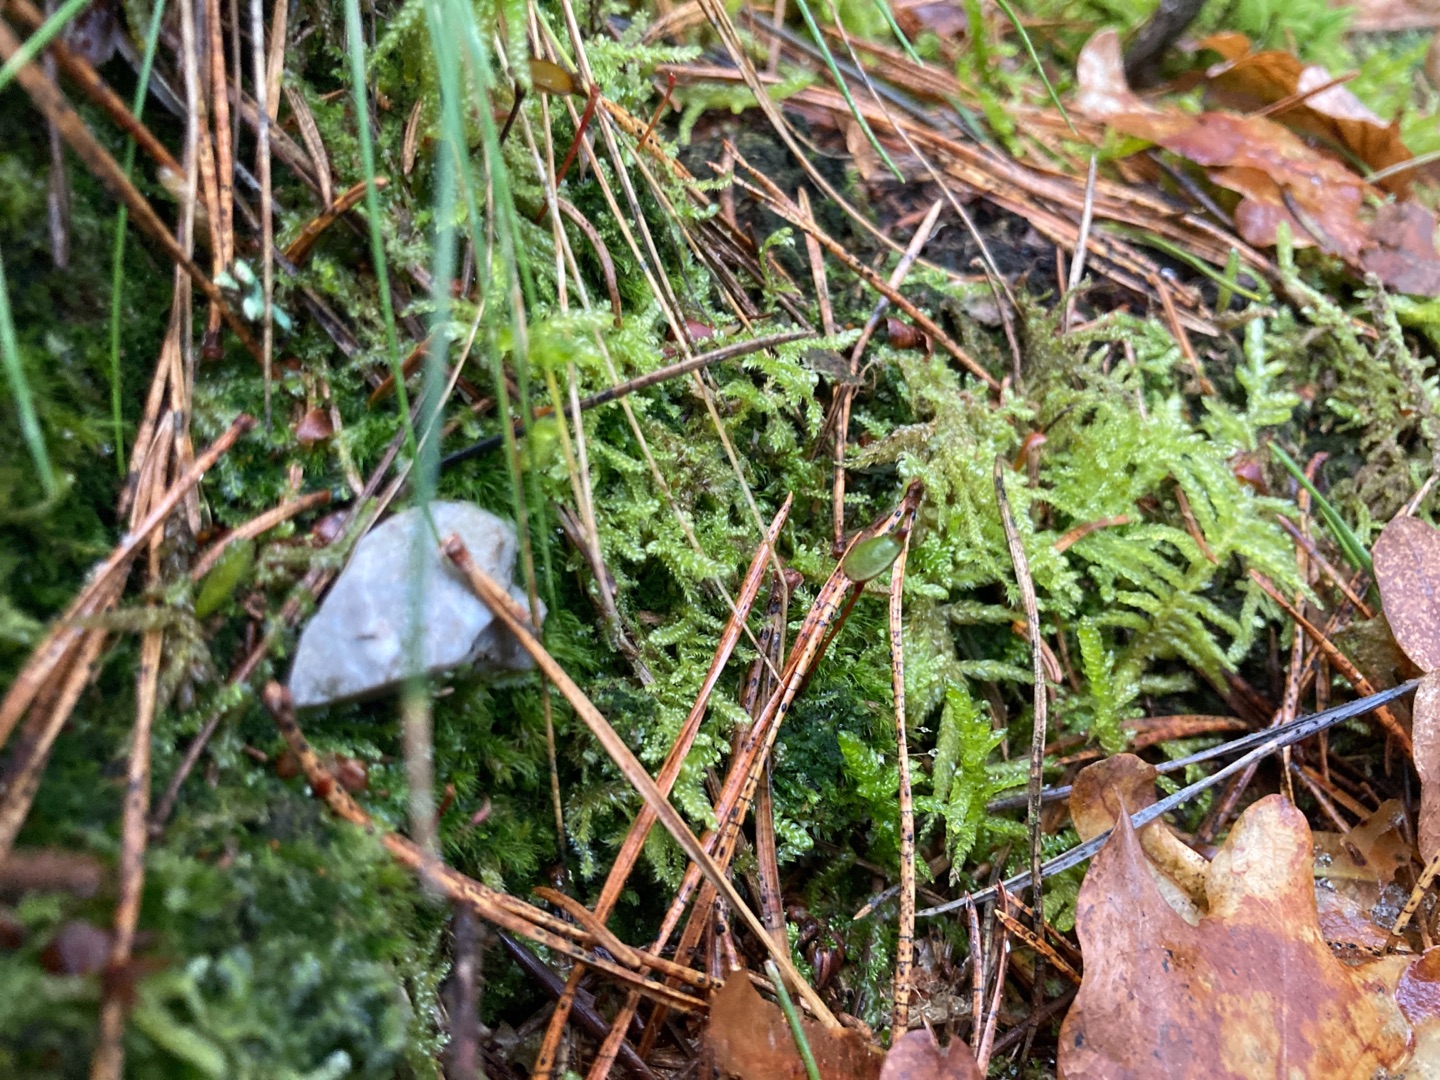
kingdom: Plantae
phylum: Bryophyta
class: Bryopsida
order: Buxbaumiales
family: Buxbaumiaceae
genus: Buxbaumia
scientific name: Buxbaumia aphylla
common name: Rundkapslet buxbaumia
